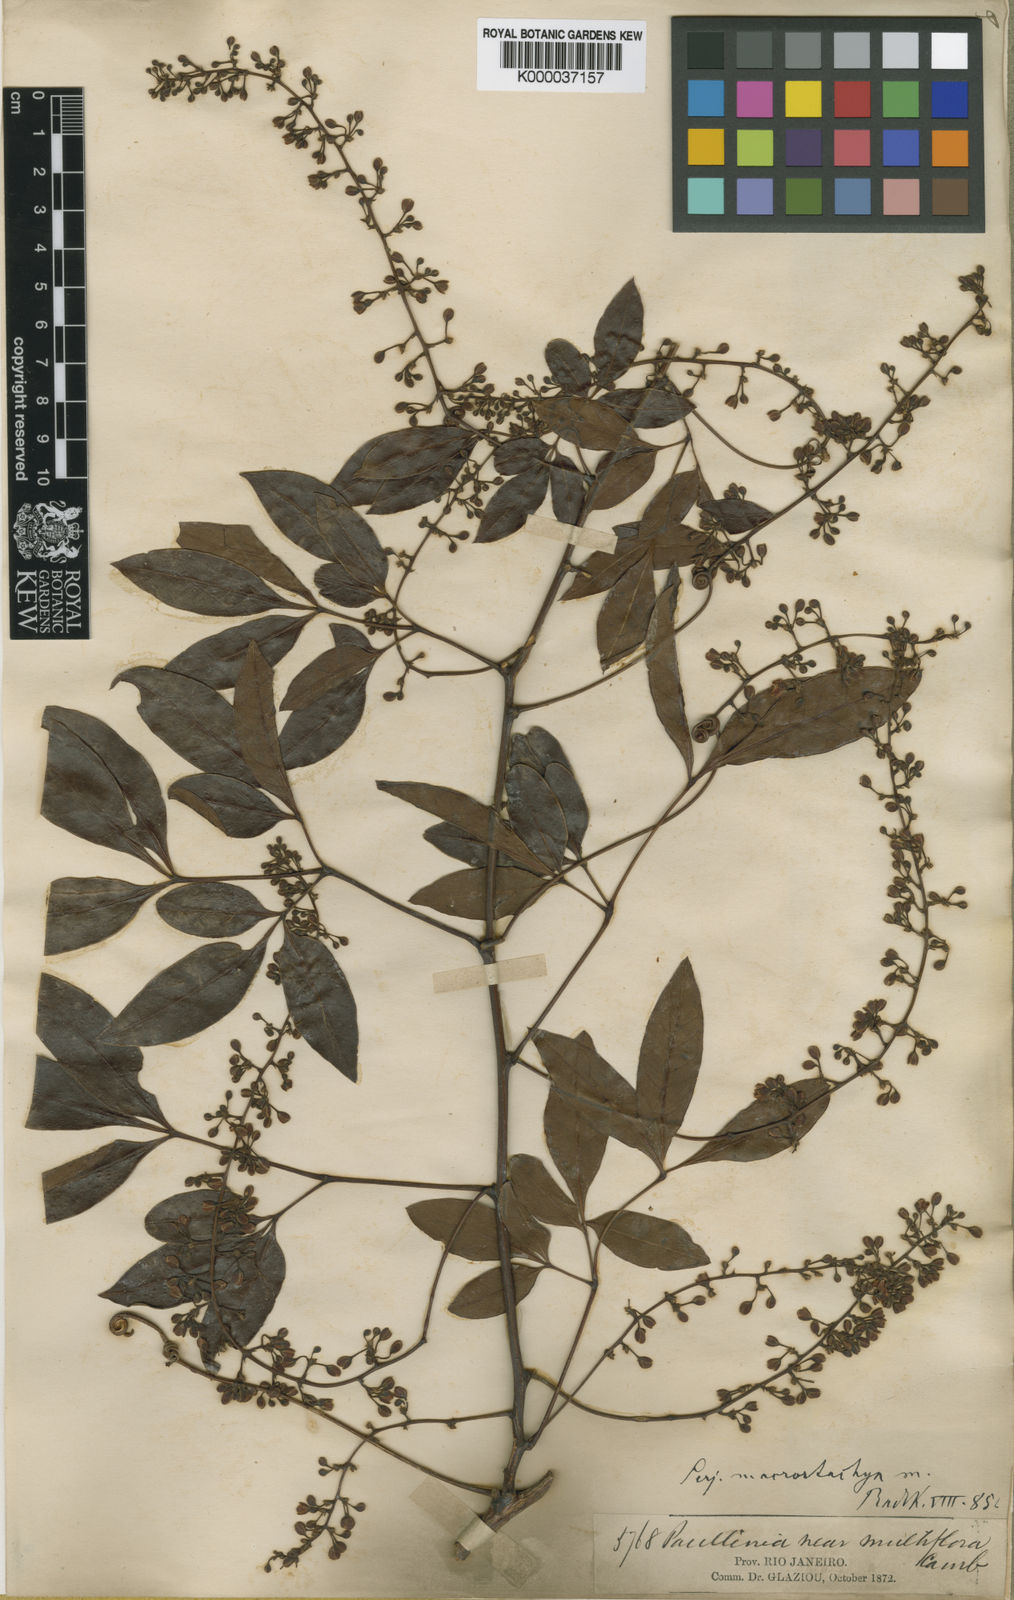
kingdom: Plantae
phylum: Tracheophyta
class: Magnoliopsida
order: Sapindales
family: Sapindaceae
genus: Serjania
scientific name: Serjania macrostachya
